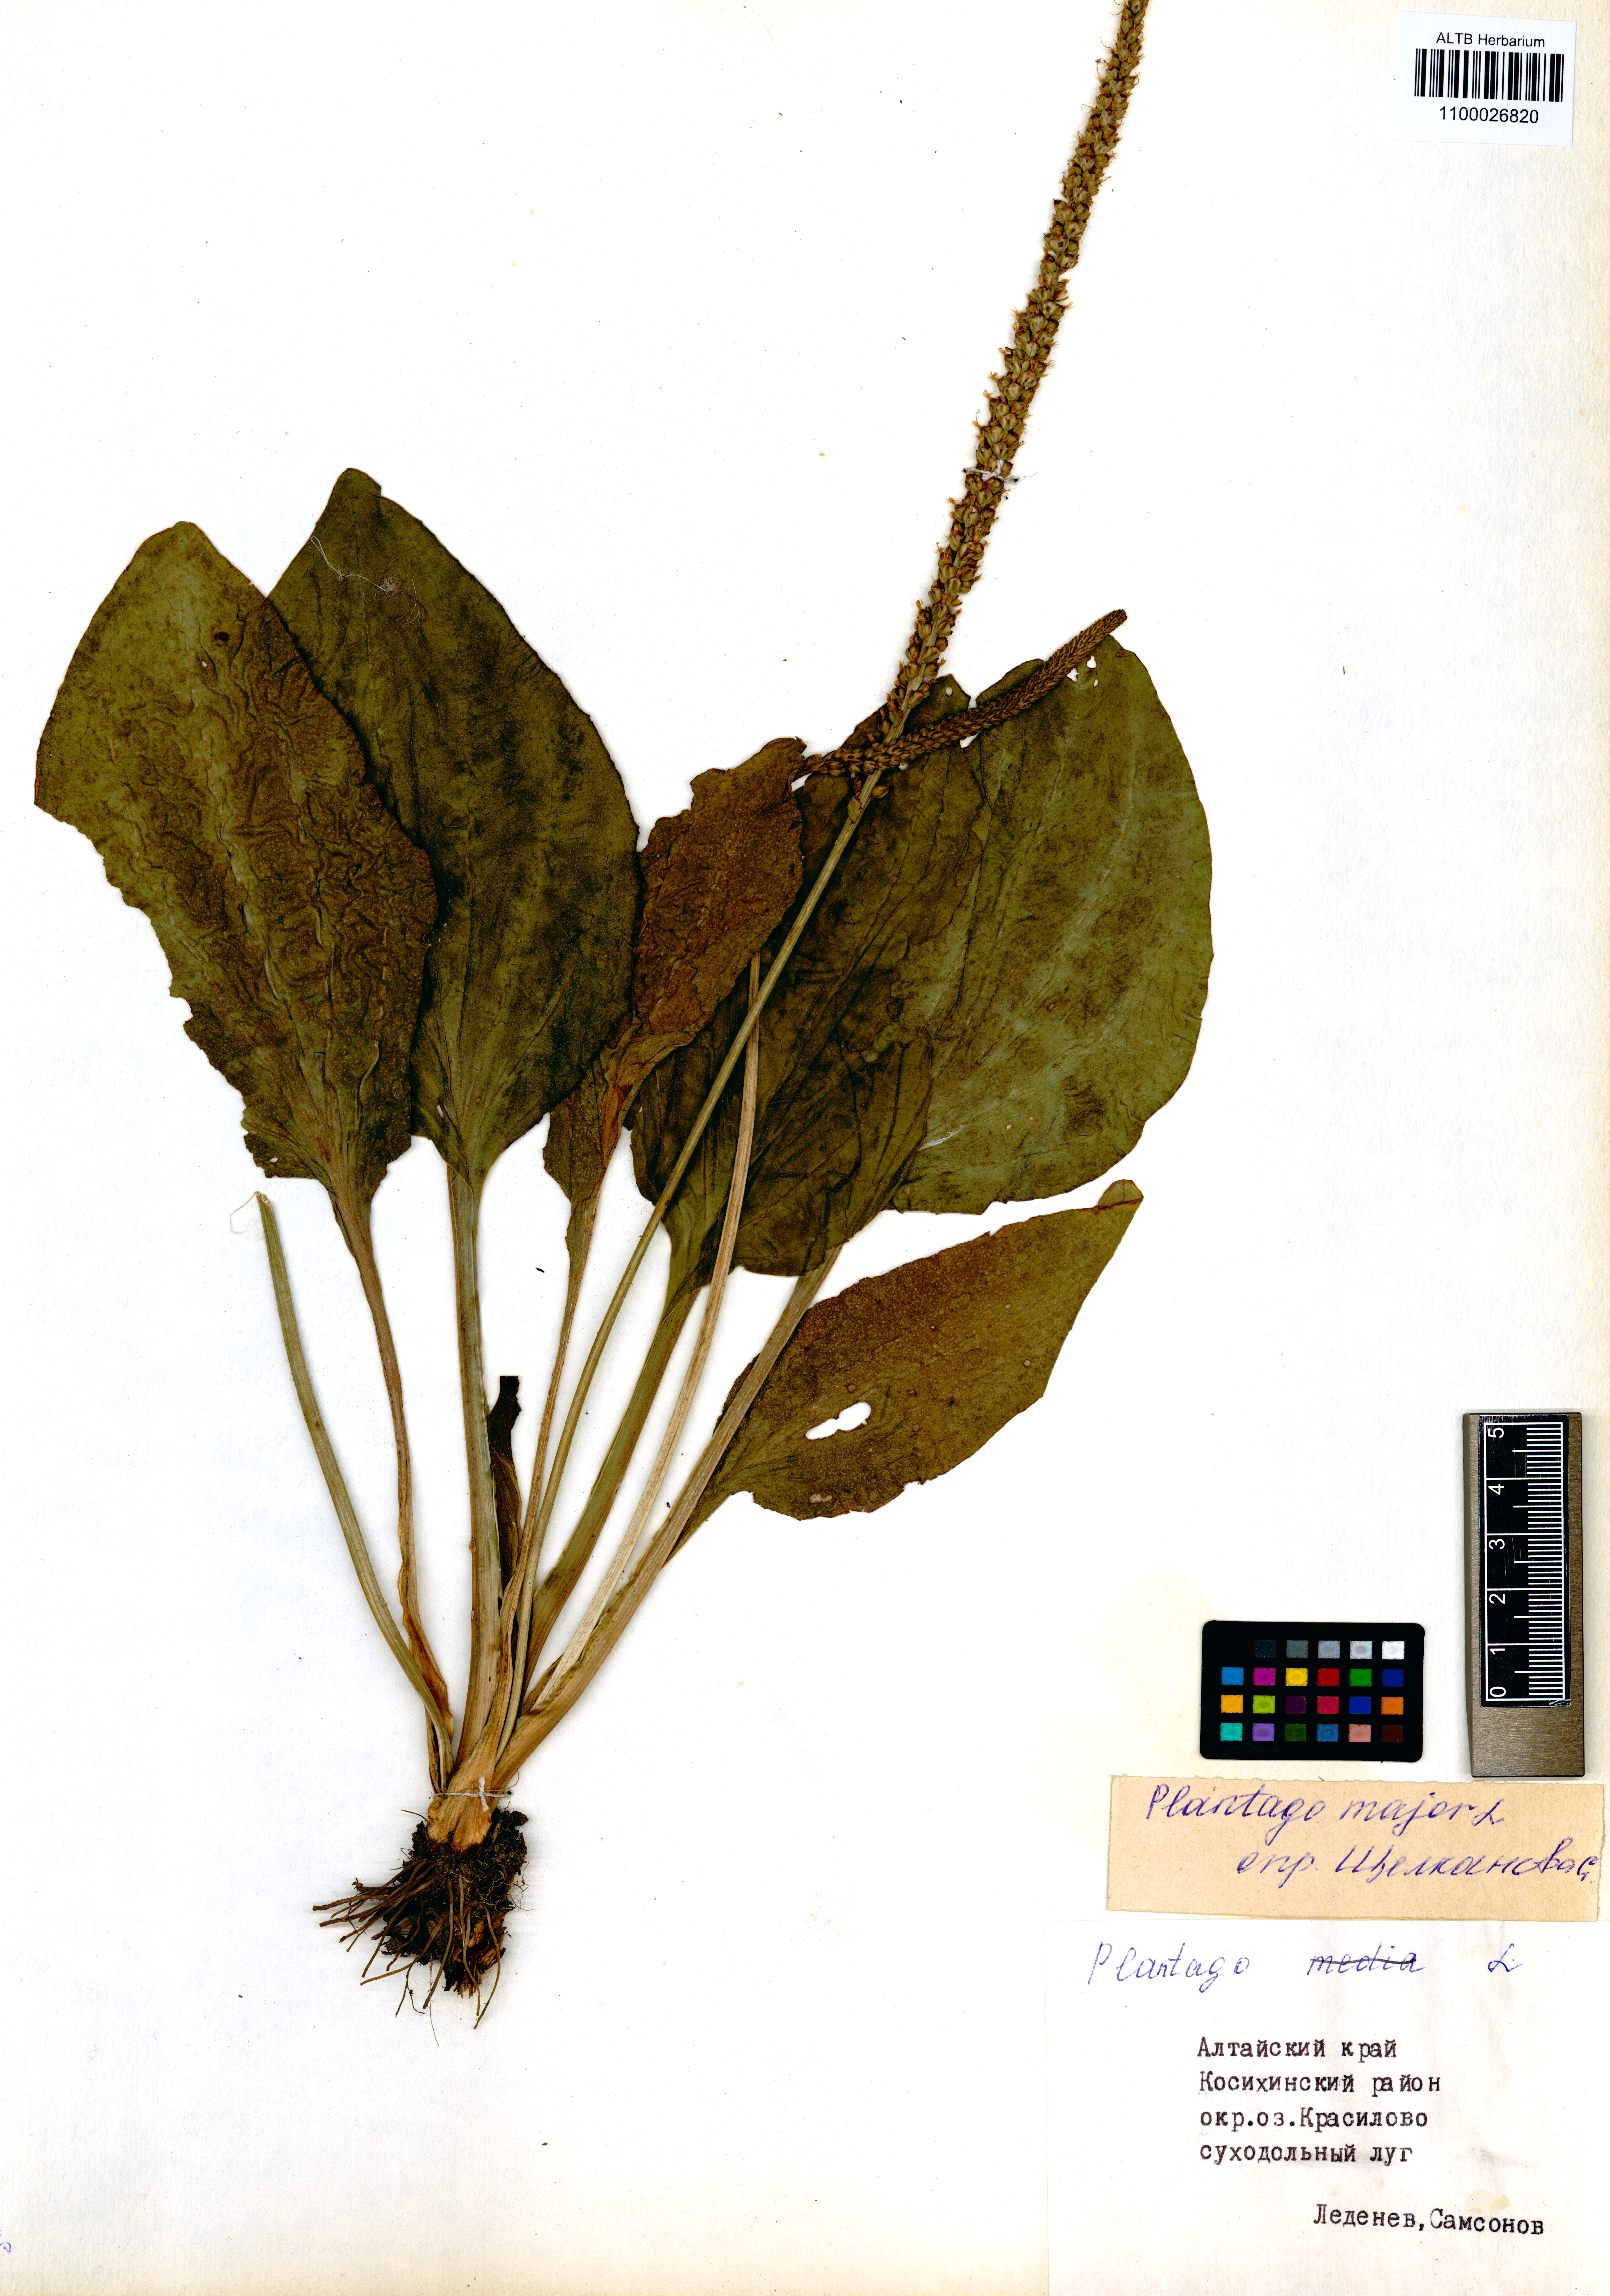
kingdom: Plantae
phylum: Tracheophyta
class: Magnoliopsida
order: Lamiales
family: Plantaginaceae
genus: Plantago
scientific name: Plantago major
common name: Common plantain
